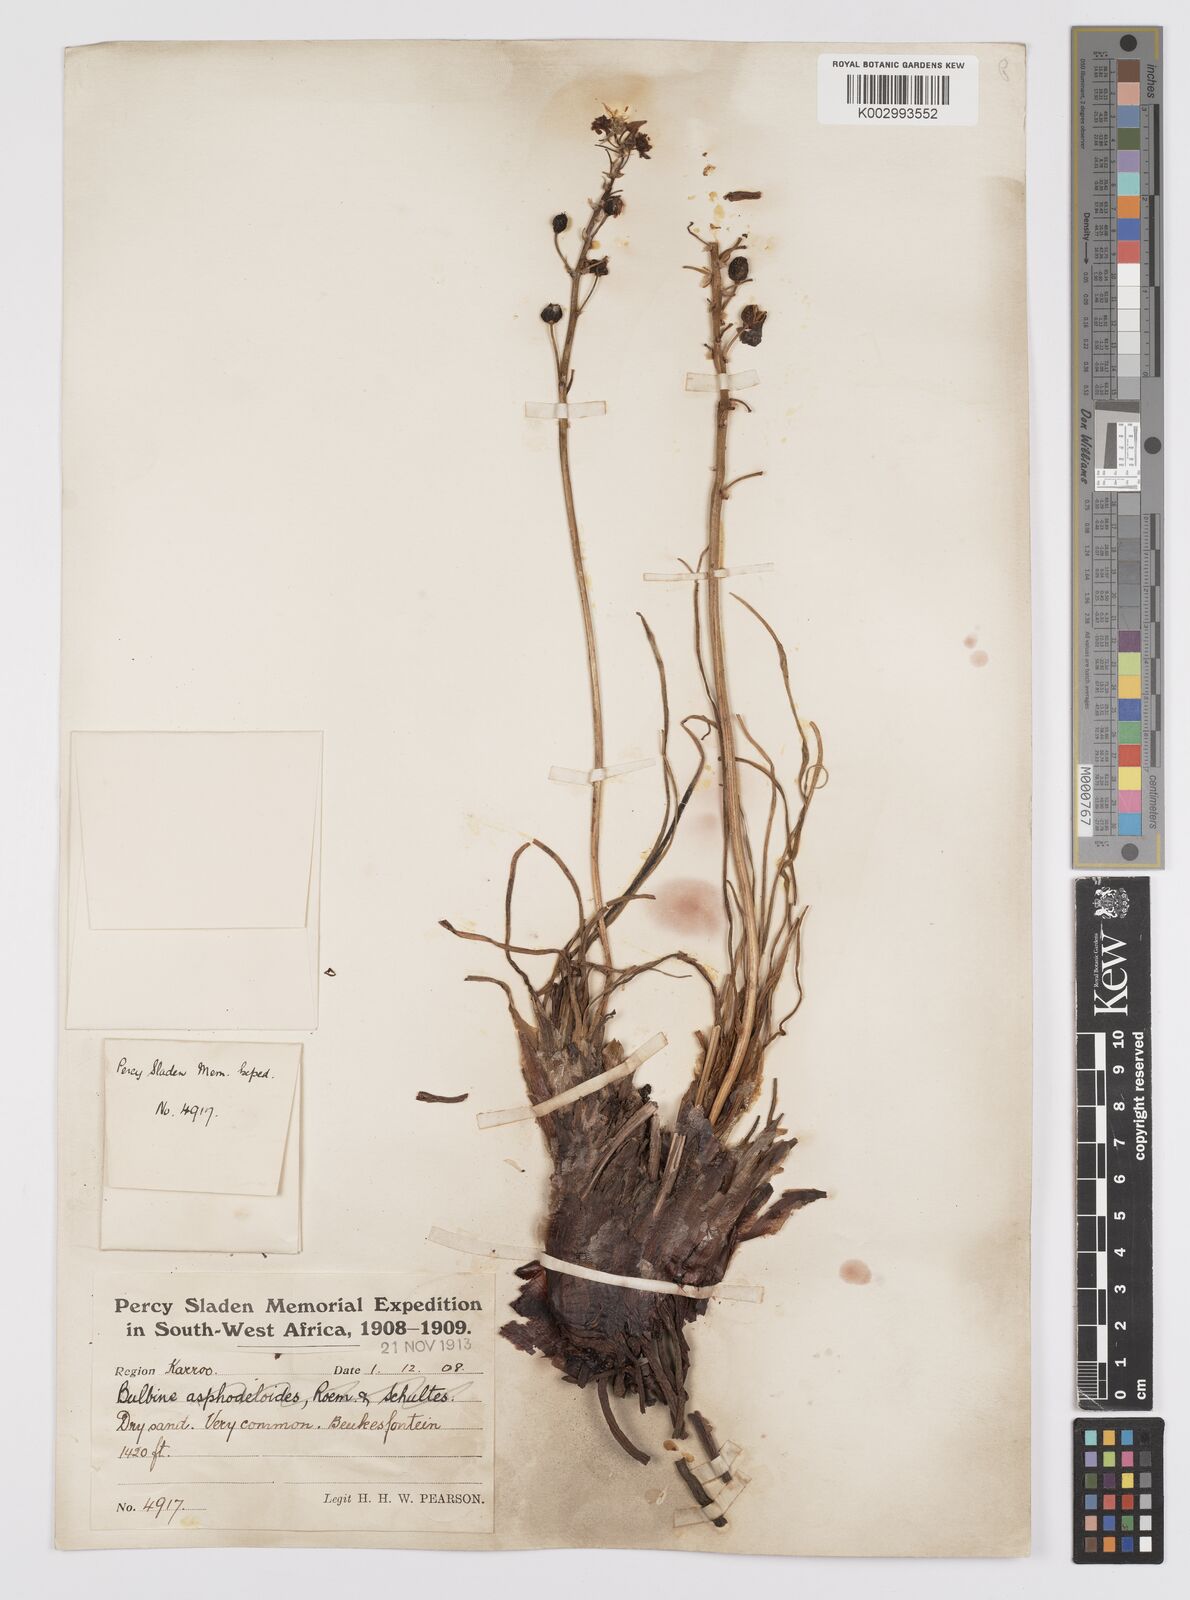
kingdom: Plantae
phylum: Tracheophyta
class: Liliopsida
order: Asparagales
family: Asphodelaceae
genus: Bulbine
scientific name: Bulbine
